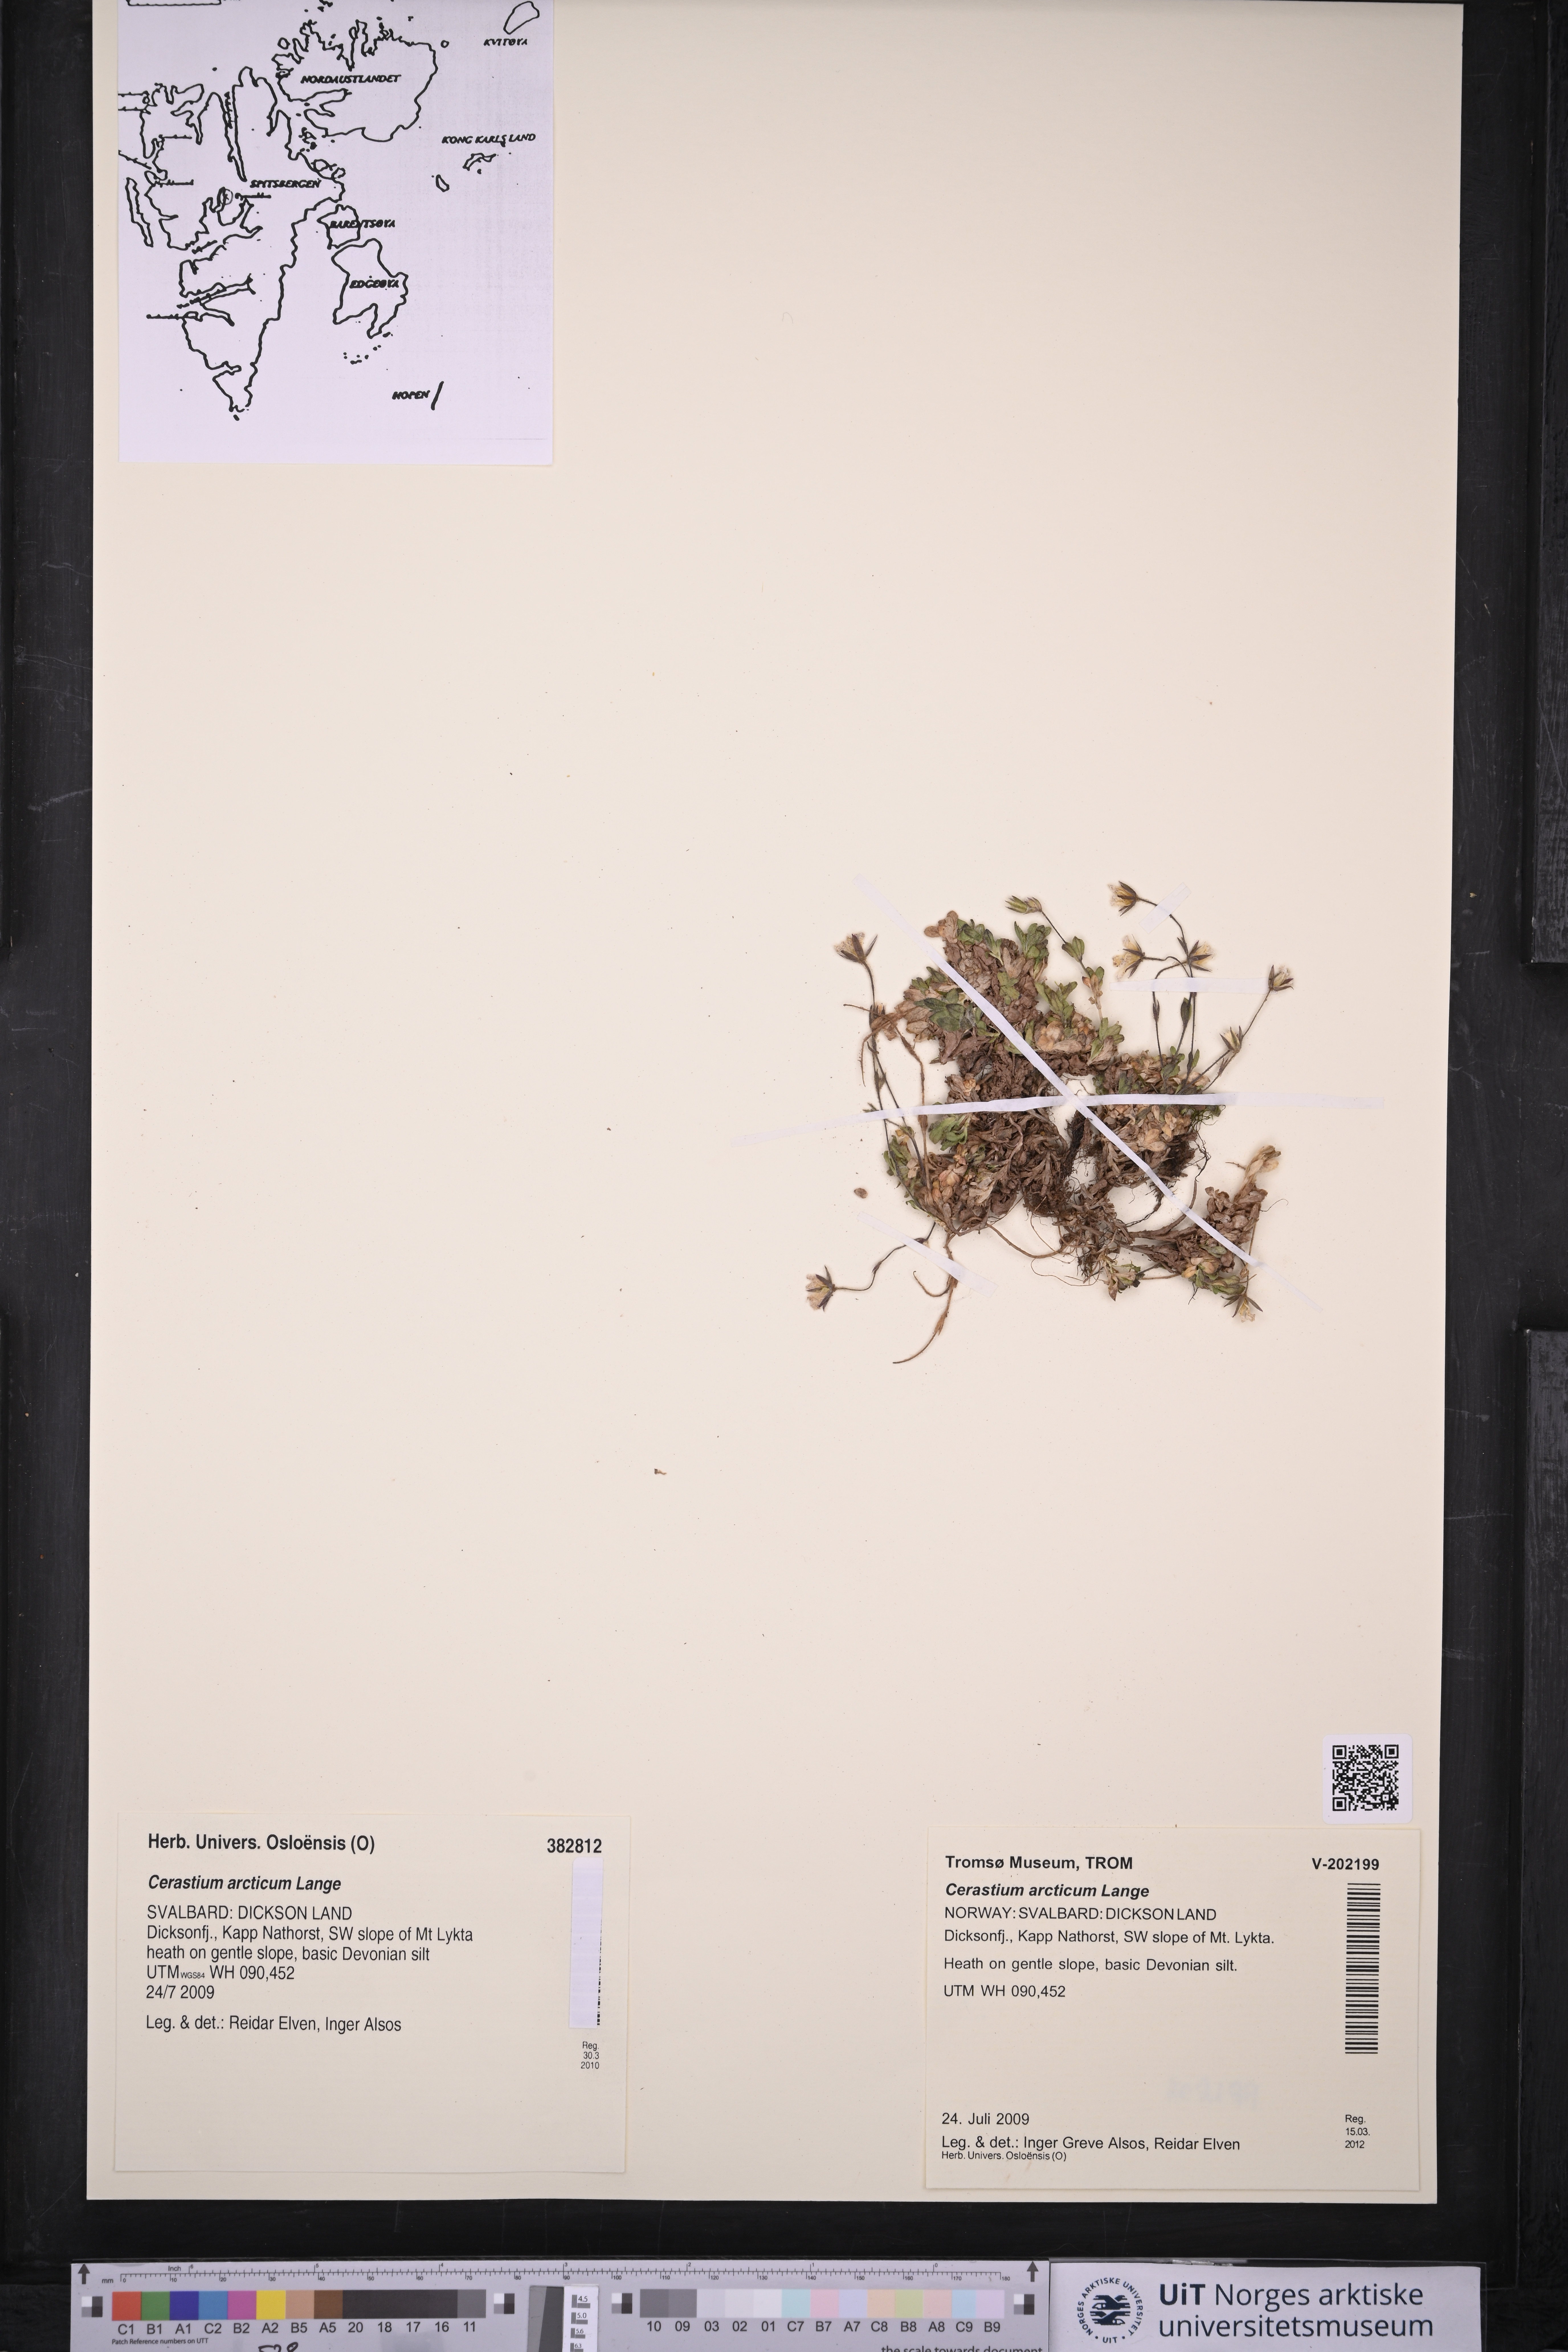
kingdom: Plantae
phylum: Tracheophyta
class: Magnoliopsida
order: Caryophyllales
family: Caryophyllaceae
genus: Cerastium
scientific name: Cerastium arcticum
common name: Arctic mouse-ear
